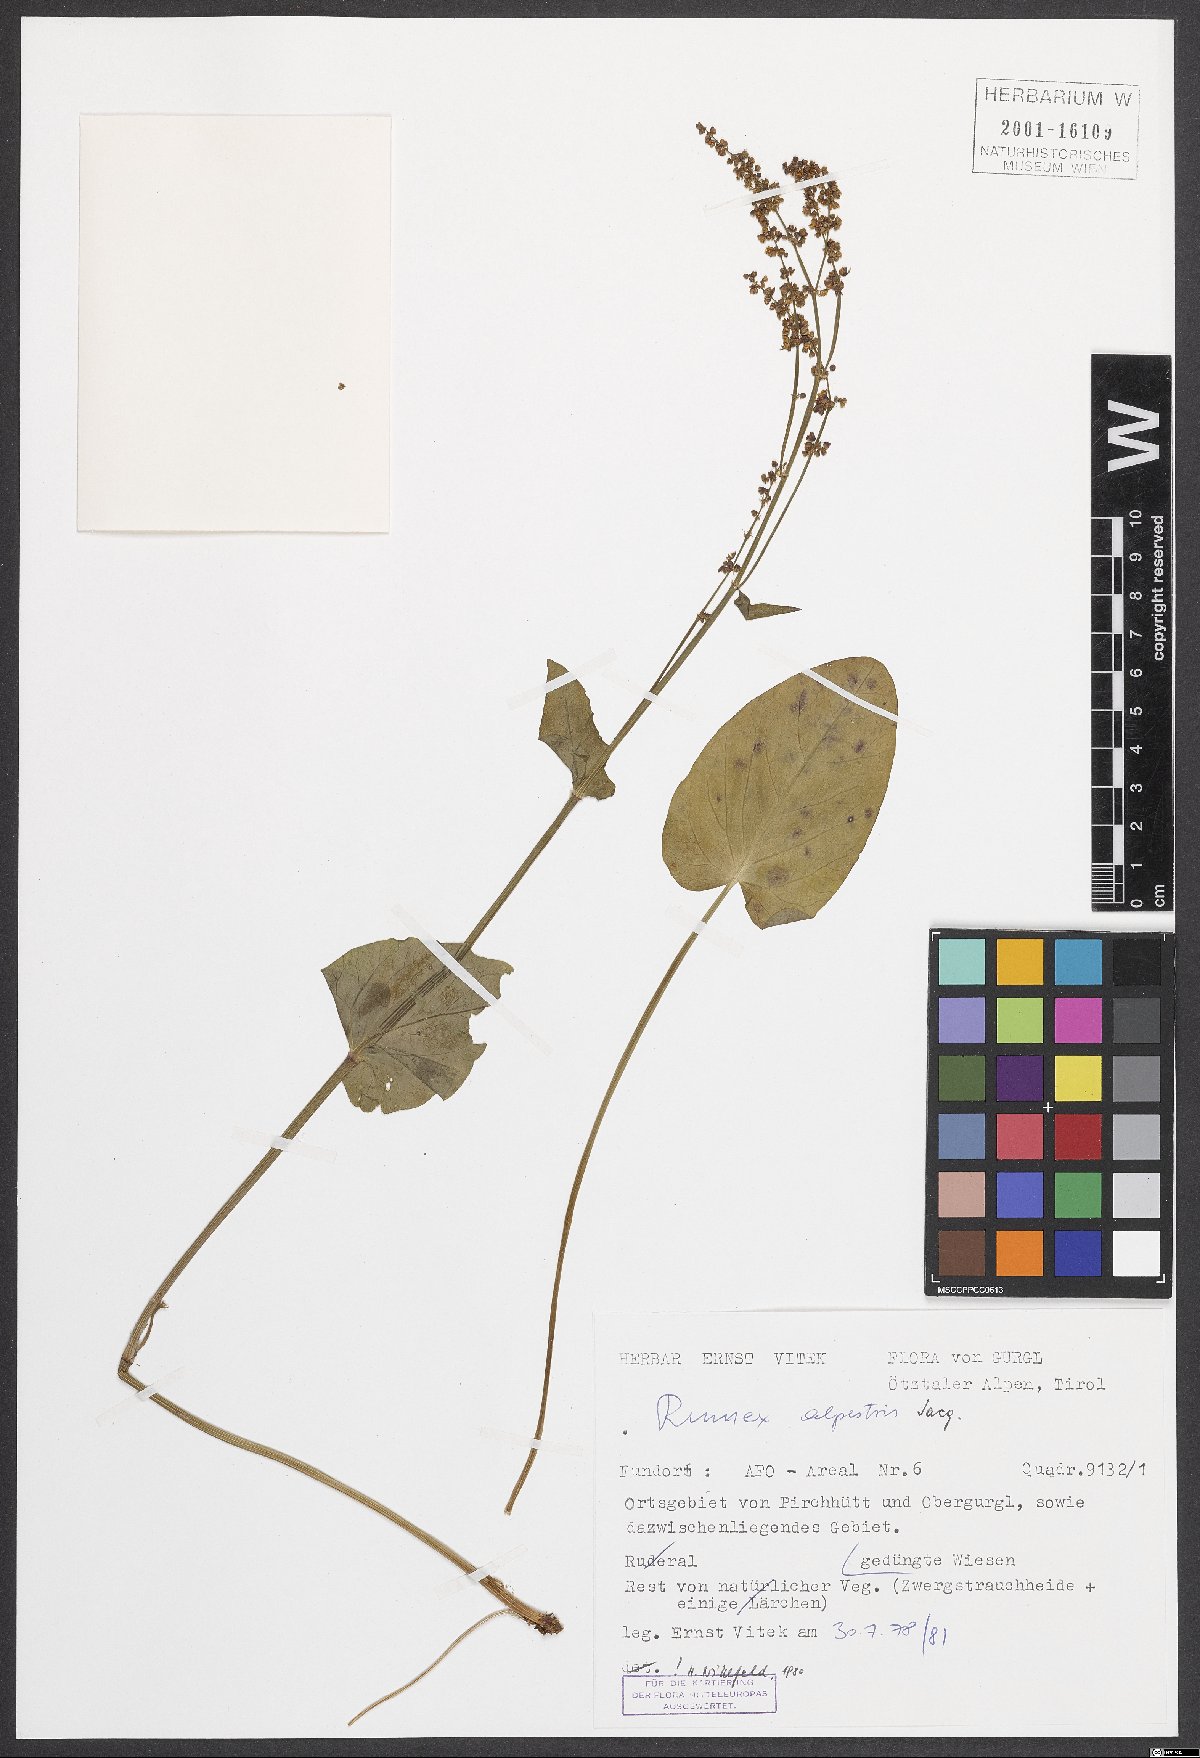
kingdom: Plantae
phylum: Tracheophyta
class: Magnoliopsida
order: Caryophyllales
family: Polygonaceae
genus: Rumex
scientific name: Rumex scutatus
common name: French sorrel
